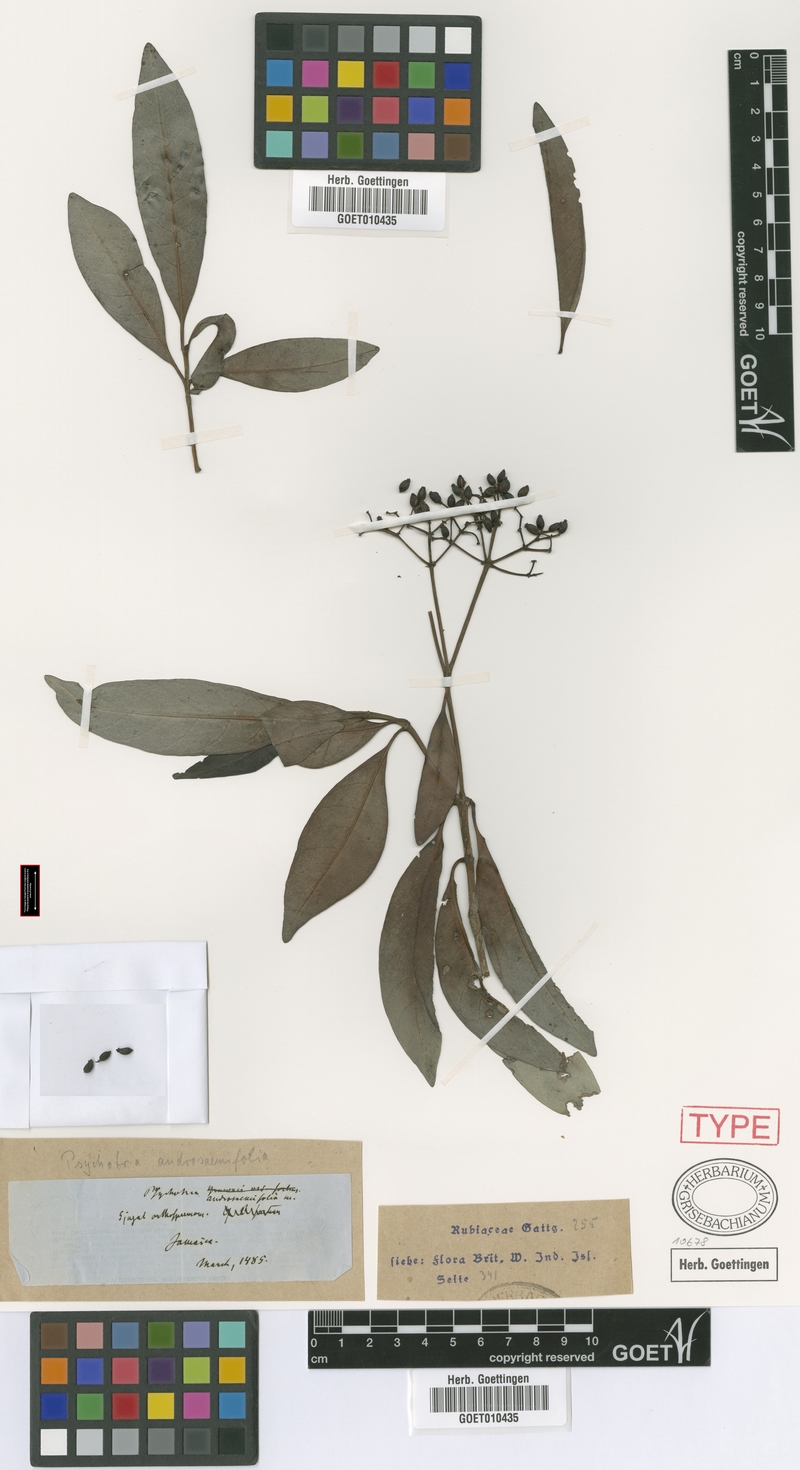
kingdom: Plantae
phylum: Tracheophyta
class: Magnoliopsida
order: Gentianales
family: Rubiaceae
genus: Psychotria
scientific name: Psychotria balbisiana
